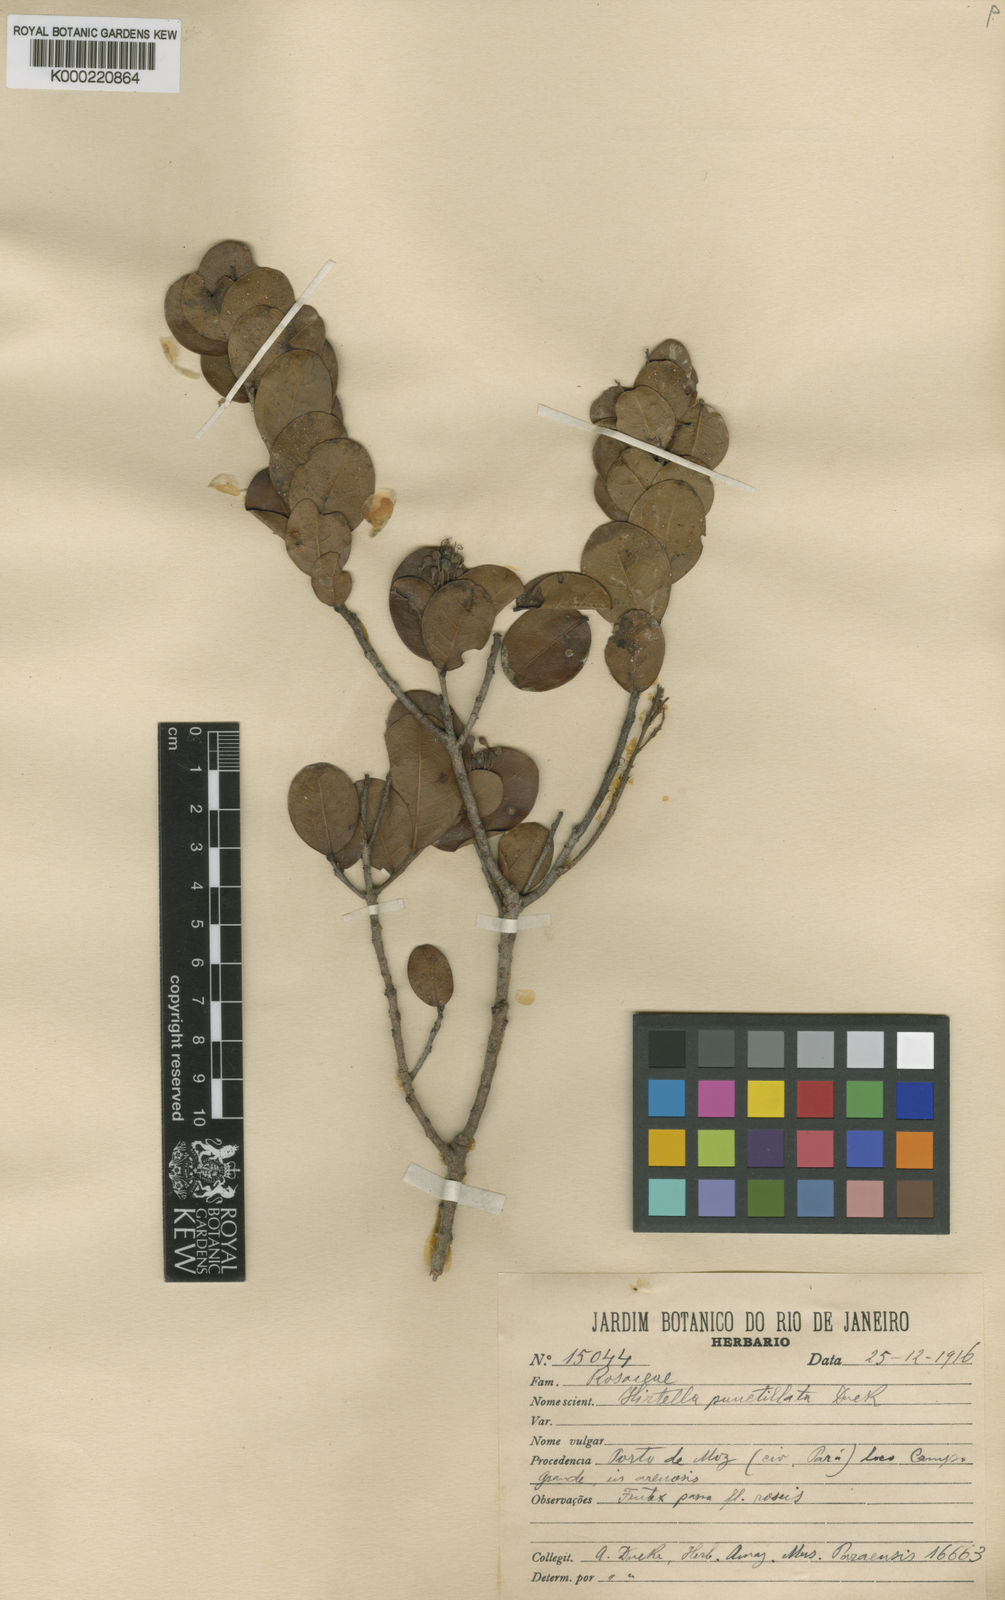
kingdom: Plantae
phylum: Tracheophyta
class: Magnoliopsida
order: Malpighiales
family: Chrysobalanaceae
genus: Hirtella
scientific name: Hirtella punctillata
